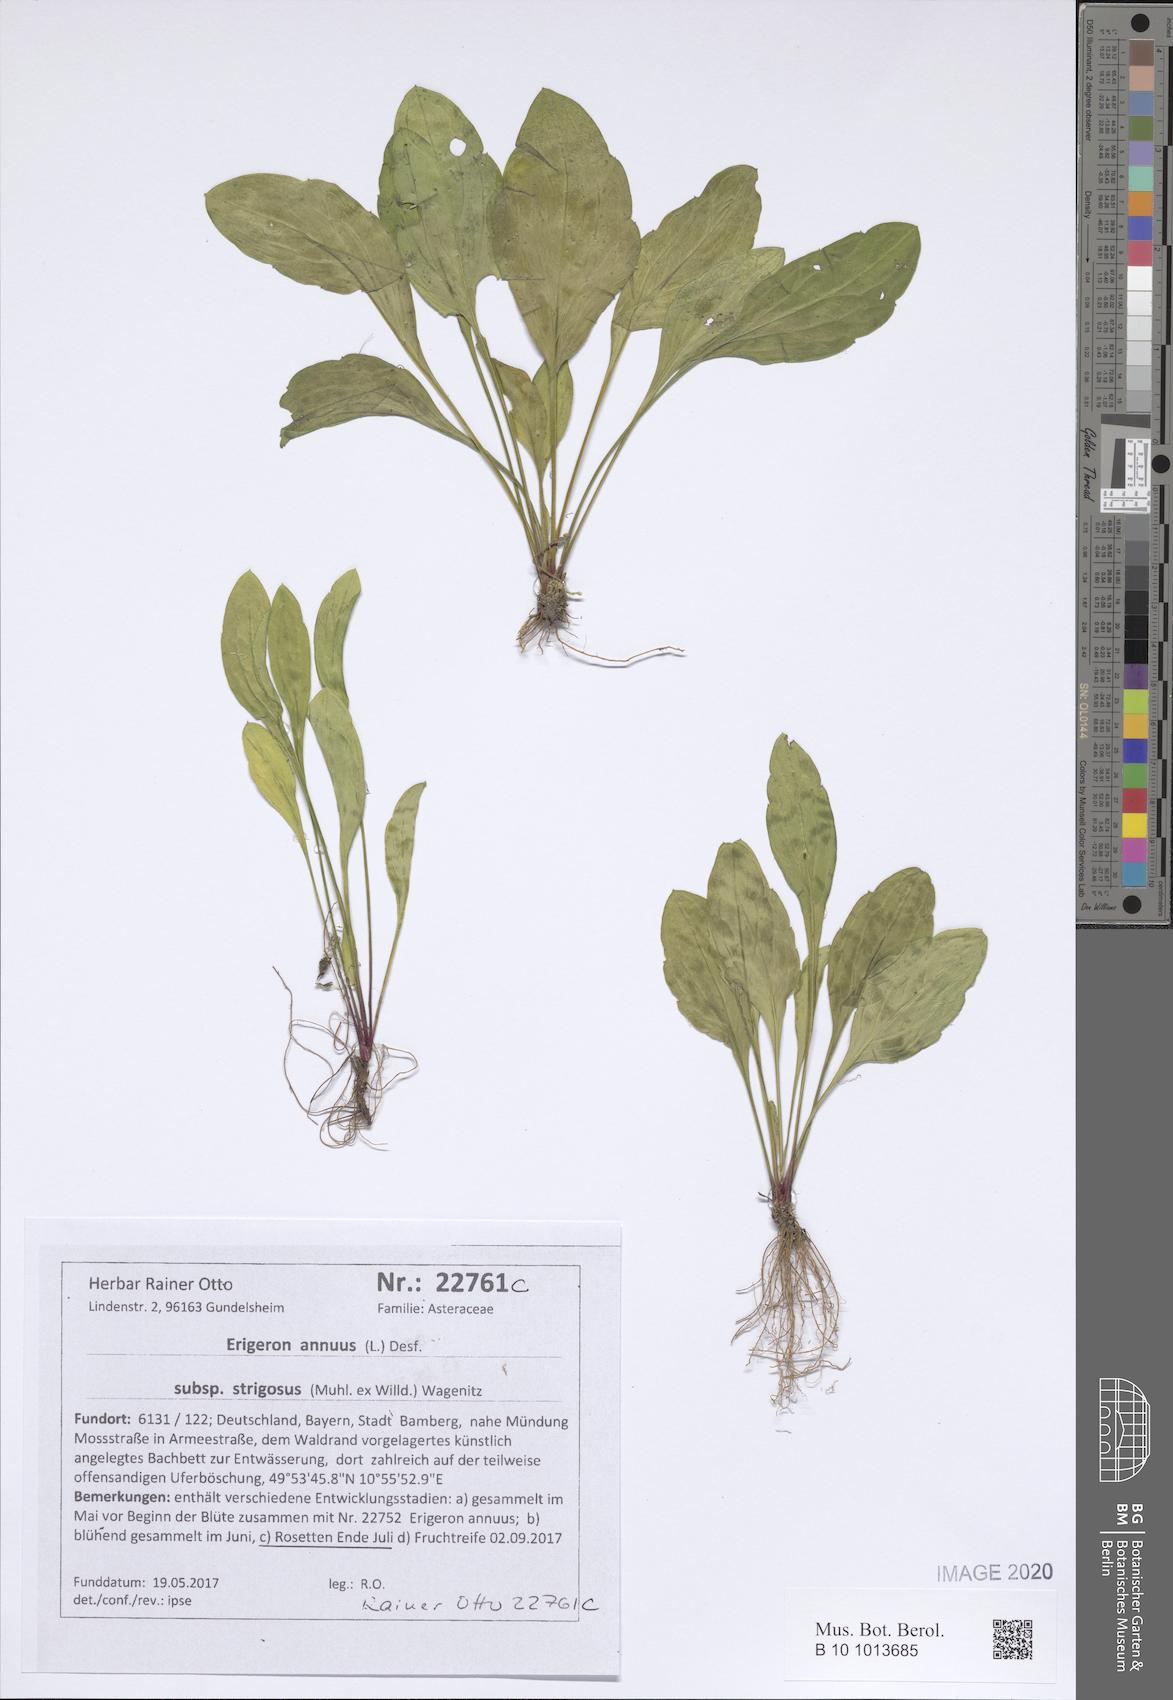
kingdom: Plantae
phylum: Tracheophyta
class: Magnoliopsida
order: Asterales
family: Asteraceae
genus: Erigeron
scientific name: Erigeron strigosus
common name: Common eastern fleabane
